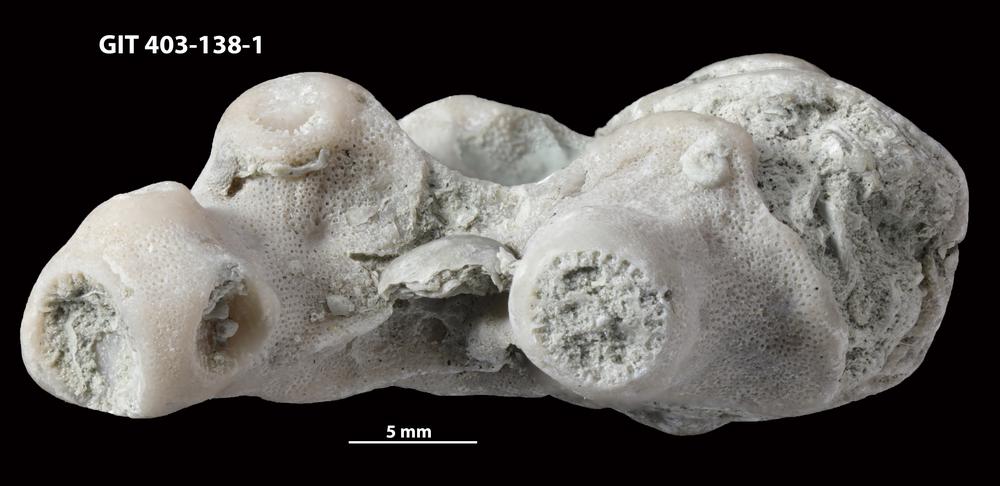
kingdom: Animalia
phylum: Cnidaria
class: Anthozoa
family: Tryplasmatidae
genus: Tryplasma
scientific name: Tryplasma
